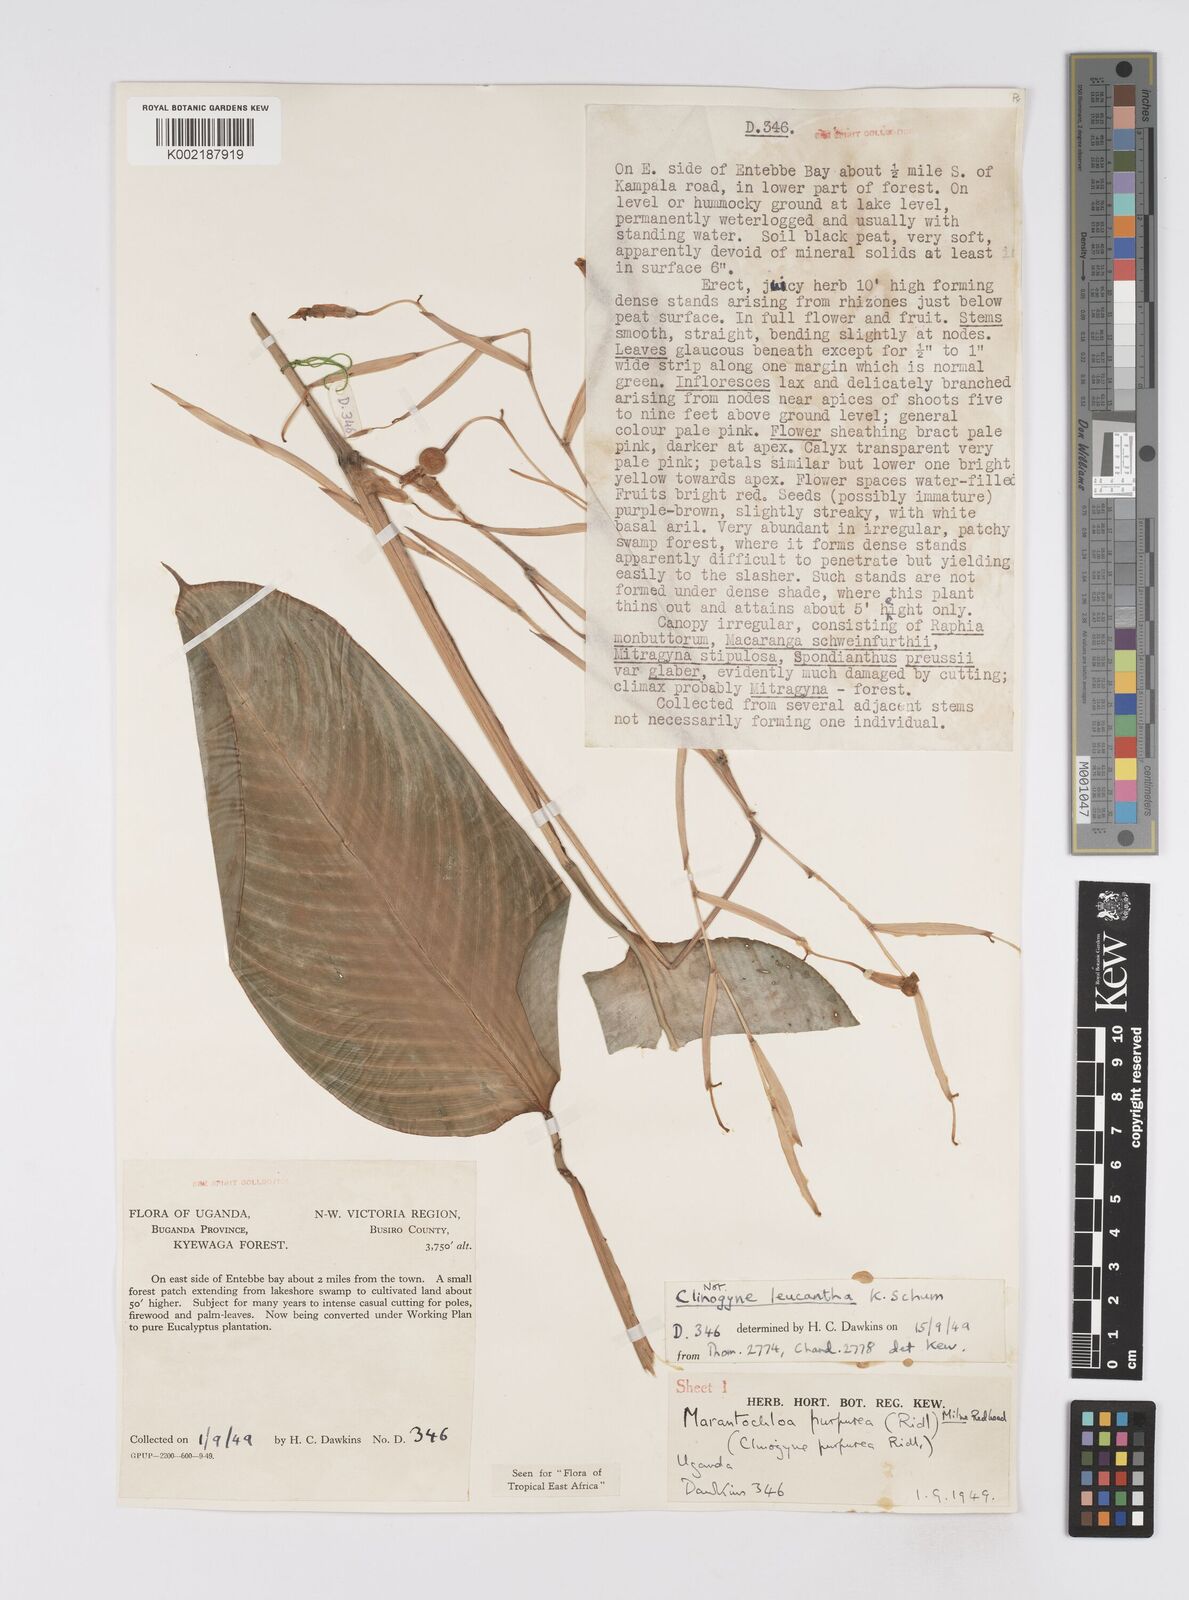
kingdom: Plantae
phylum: Tracheophyta
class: Liliopsida
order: Zingiberales
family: Marantaceae
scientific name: Marantaceae
